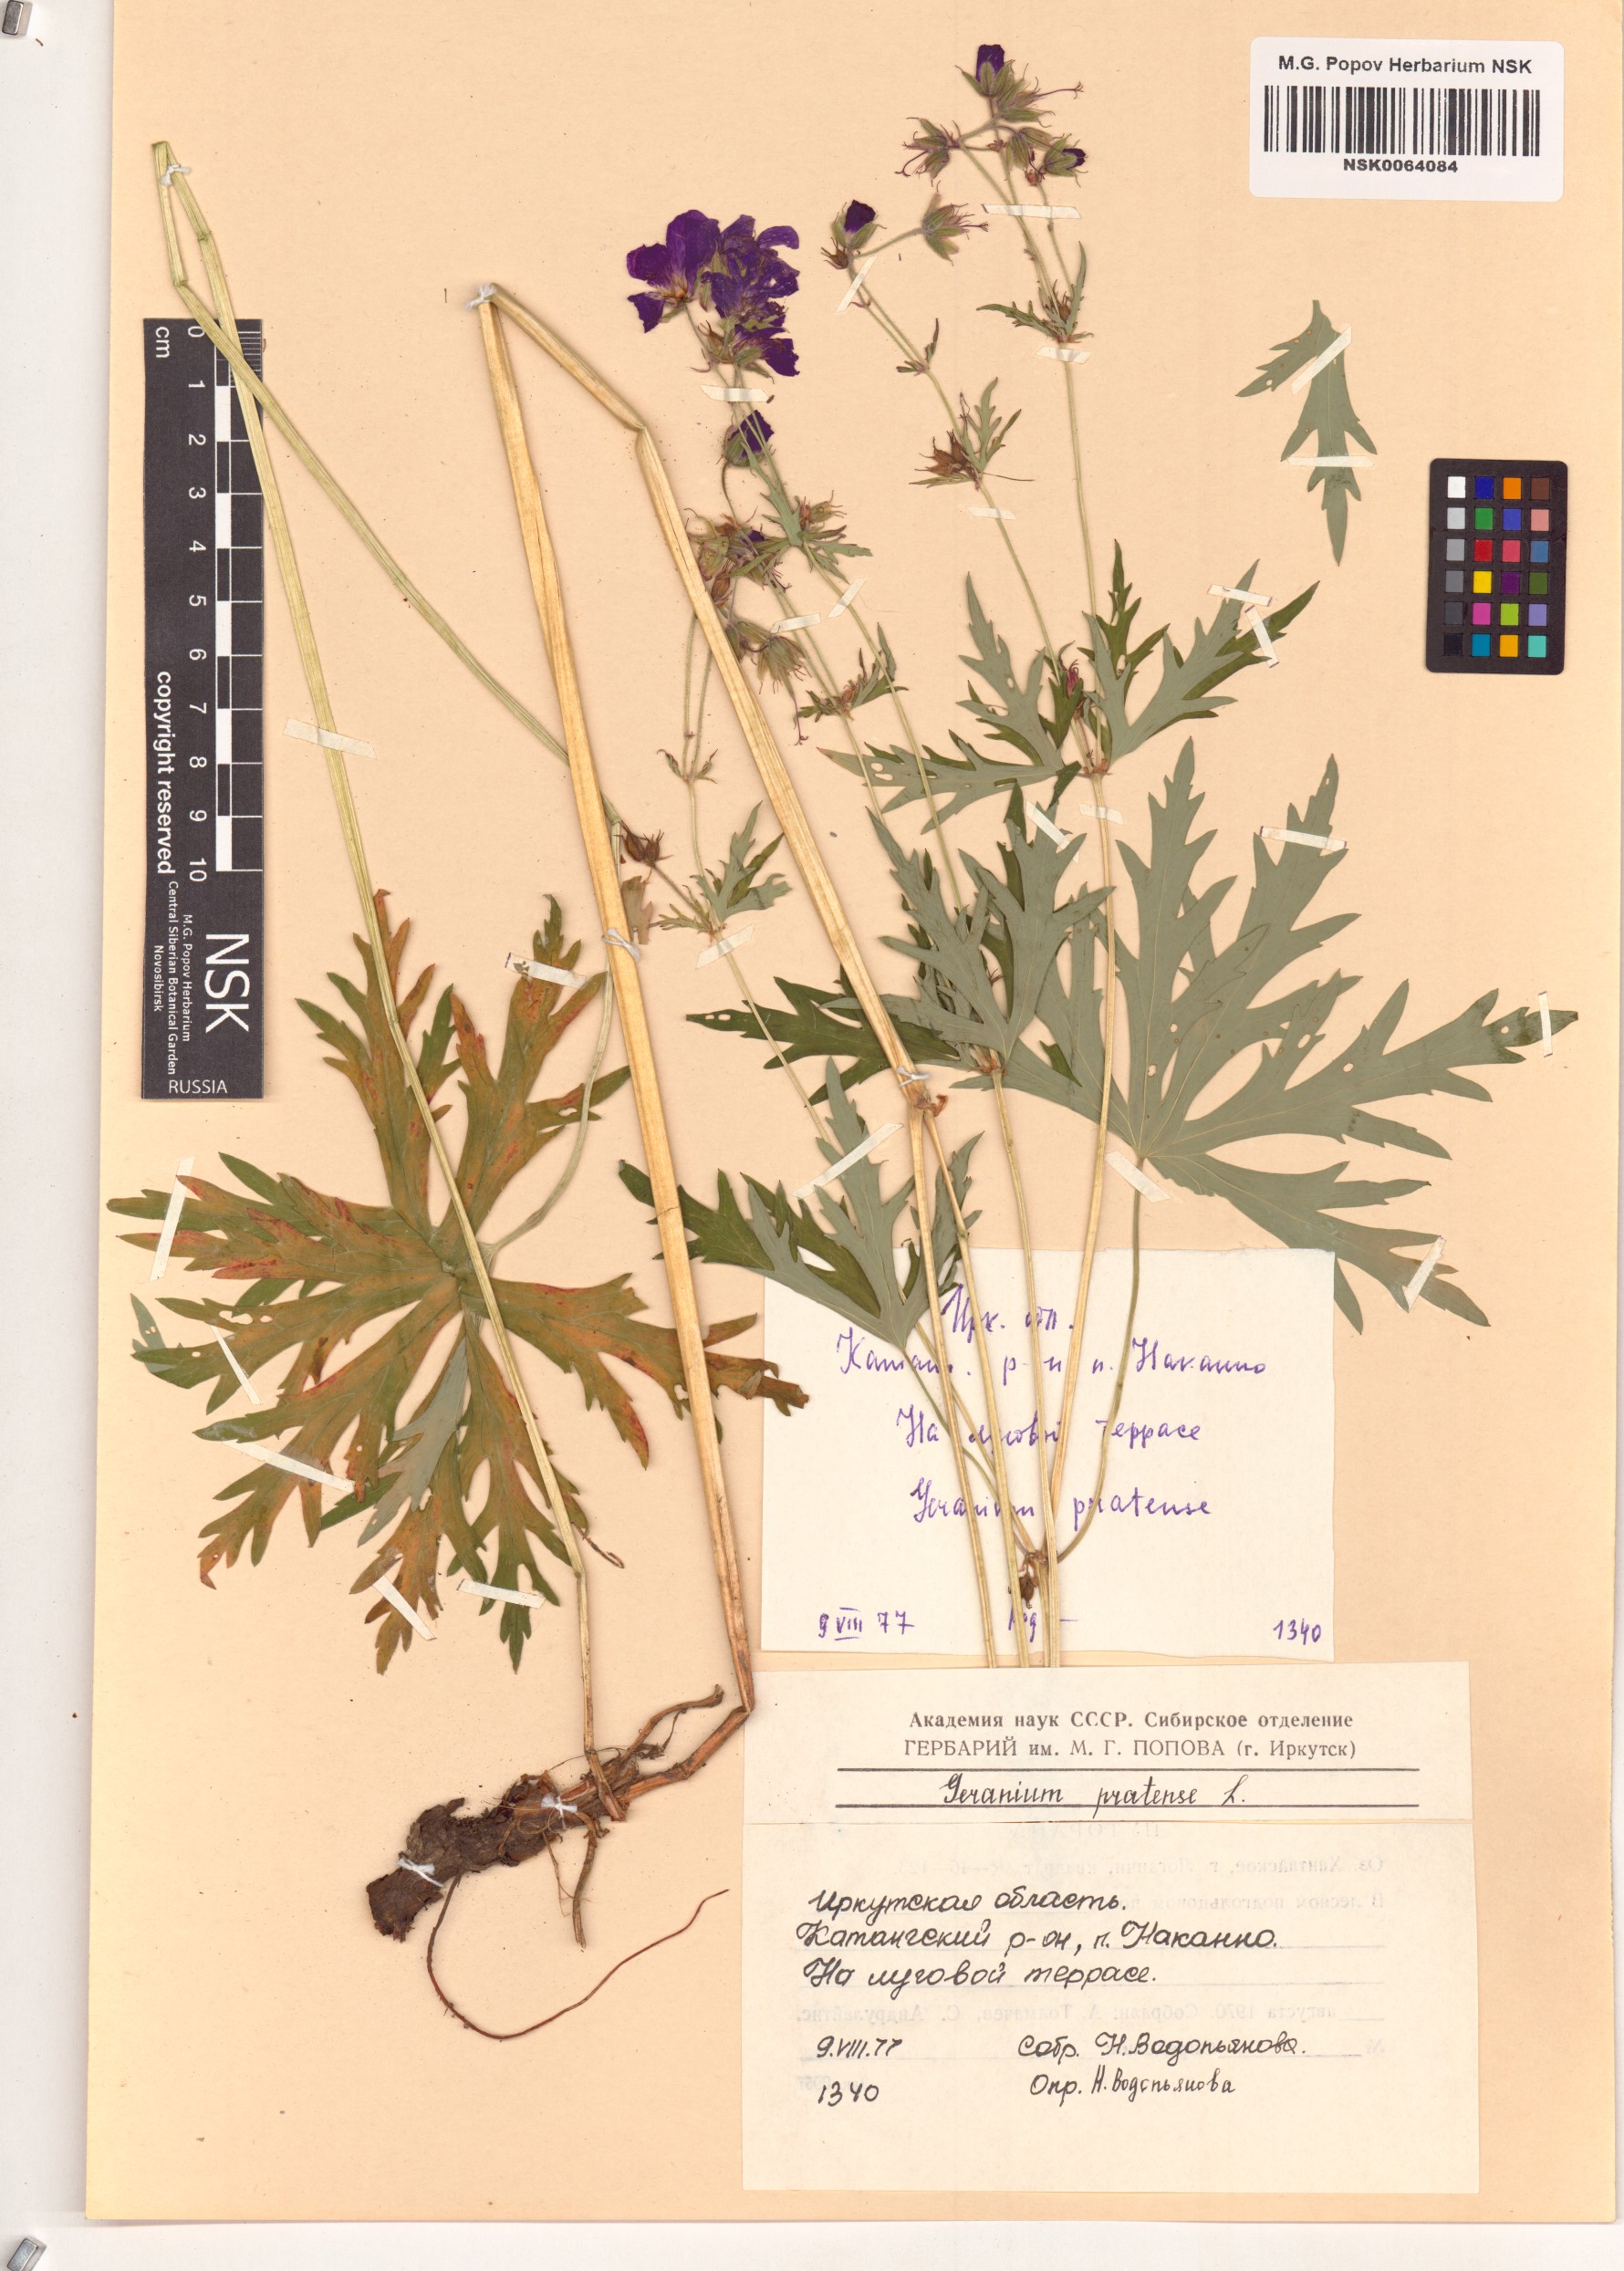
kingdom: Plantae
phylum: Tracheophyta
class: Magnoliopsida
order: Geraniales
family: Geraniaceae
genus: Geranium
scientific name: Geranium pratense
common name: Meadow crane's-bill
